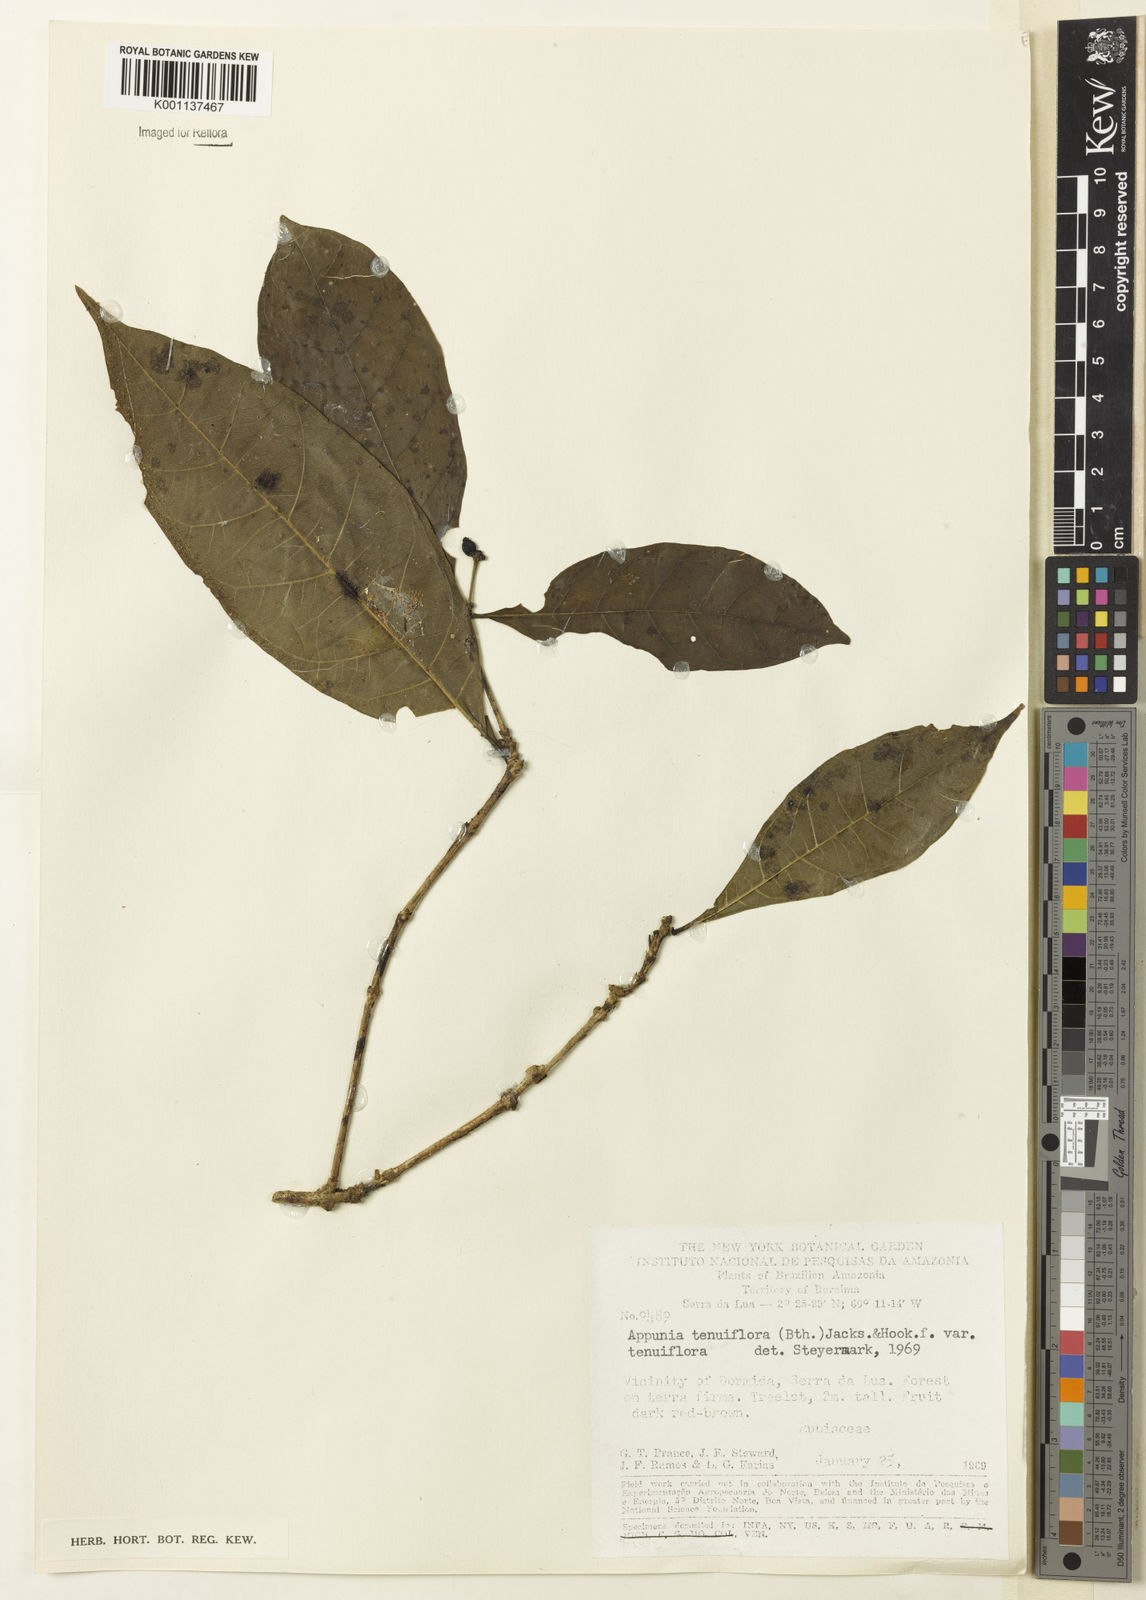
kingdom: Plantae
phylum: Tracheophyta
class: Magnoliopsida
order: Gentianales
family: Rubiaceae
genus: Appunia
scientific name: Appunia tenuiflora
